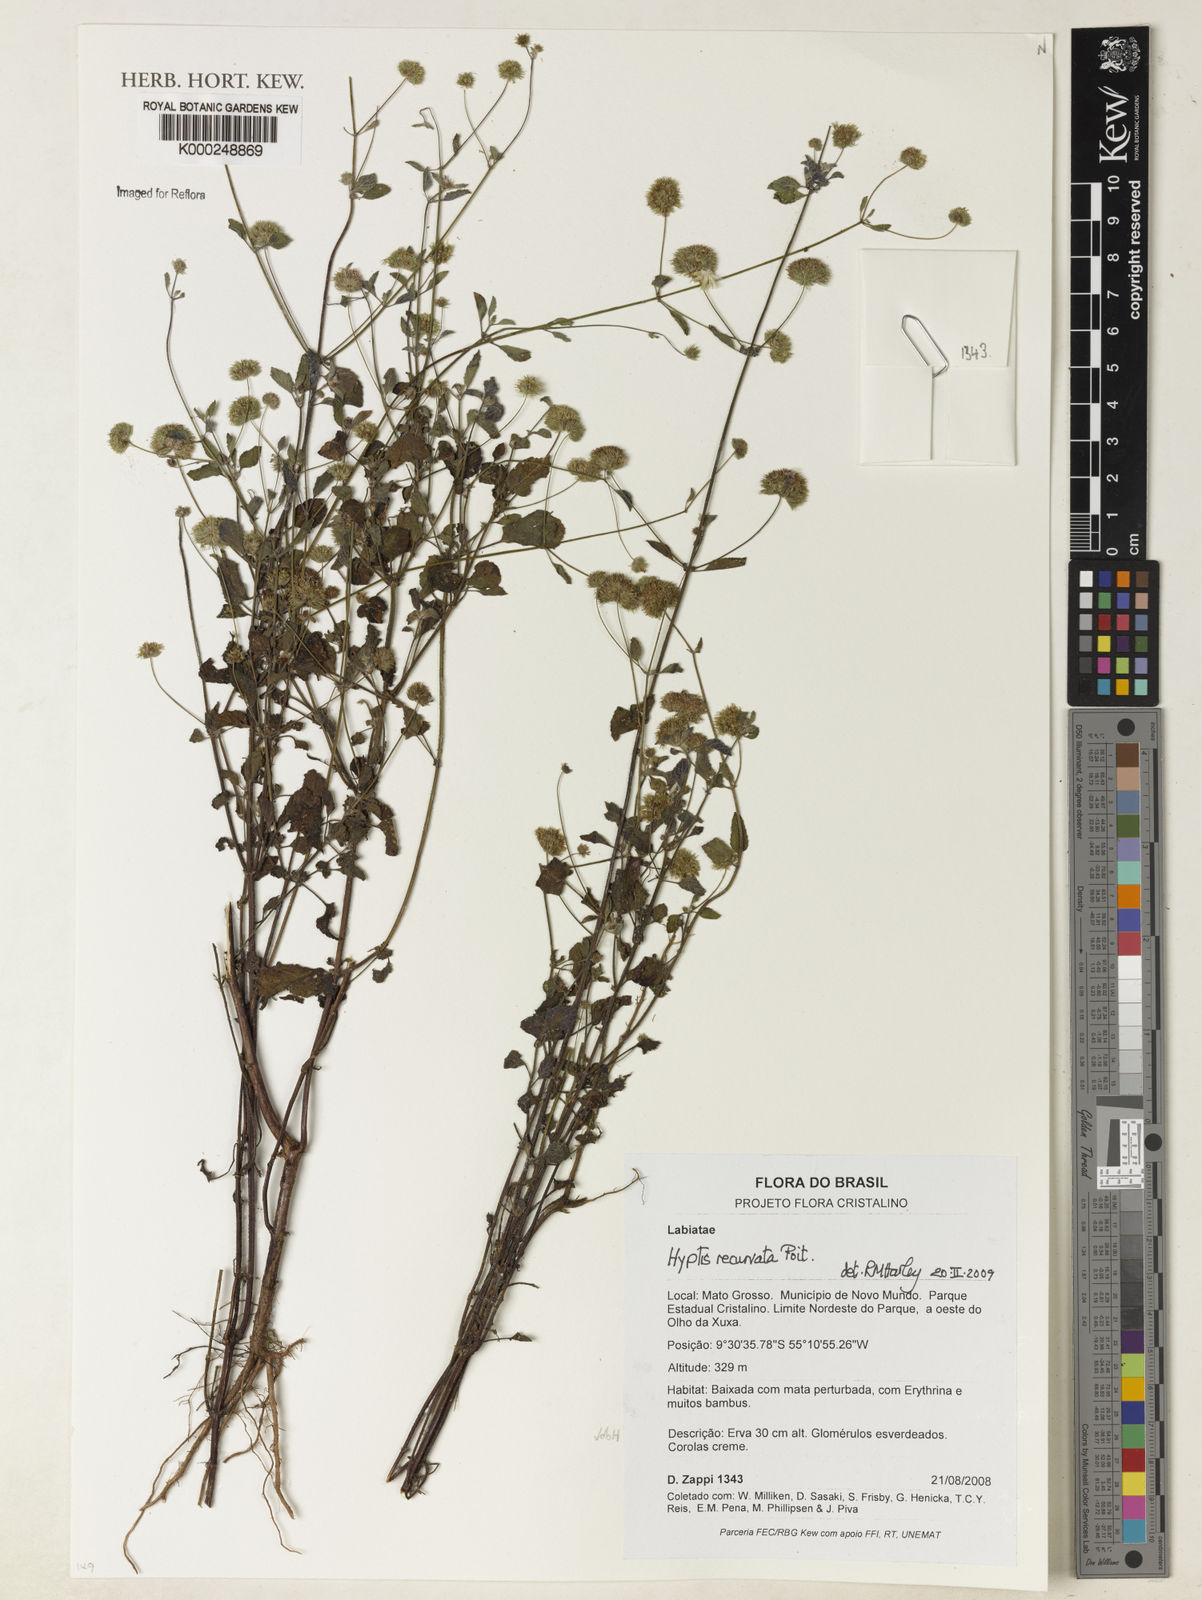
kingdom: Plantae
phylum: Tracheophyta
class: Magnoliopsida
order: Lamiales
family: Lamiaceae
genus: Hyptis
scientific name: Hyptis recurvata
